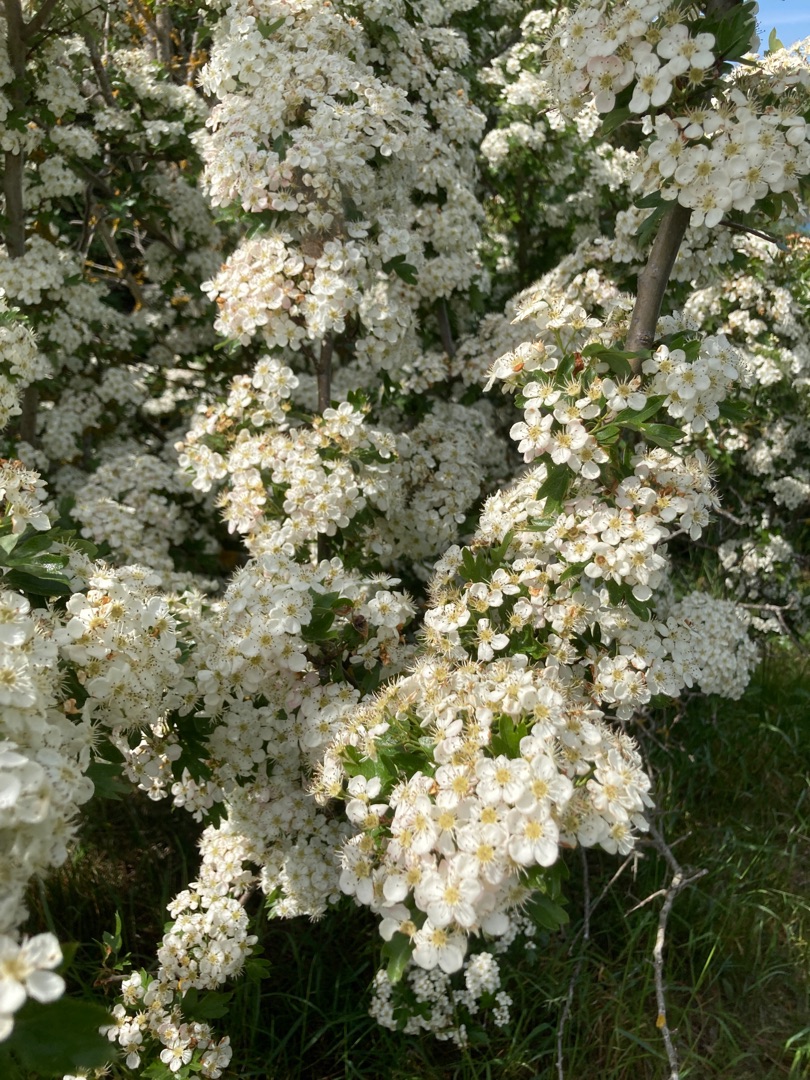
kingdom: Plantae
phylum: Tracheophyta
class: Magnoliopsida
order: Rosales
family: Rosaceae
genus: Crataegus
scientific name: Crataegus monogyna
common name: Engriflet hvidtjørn
